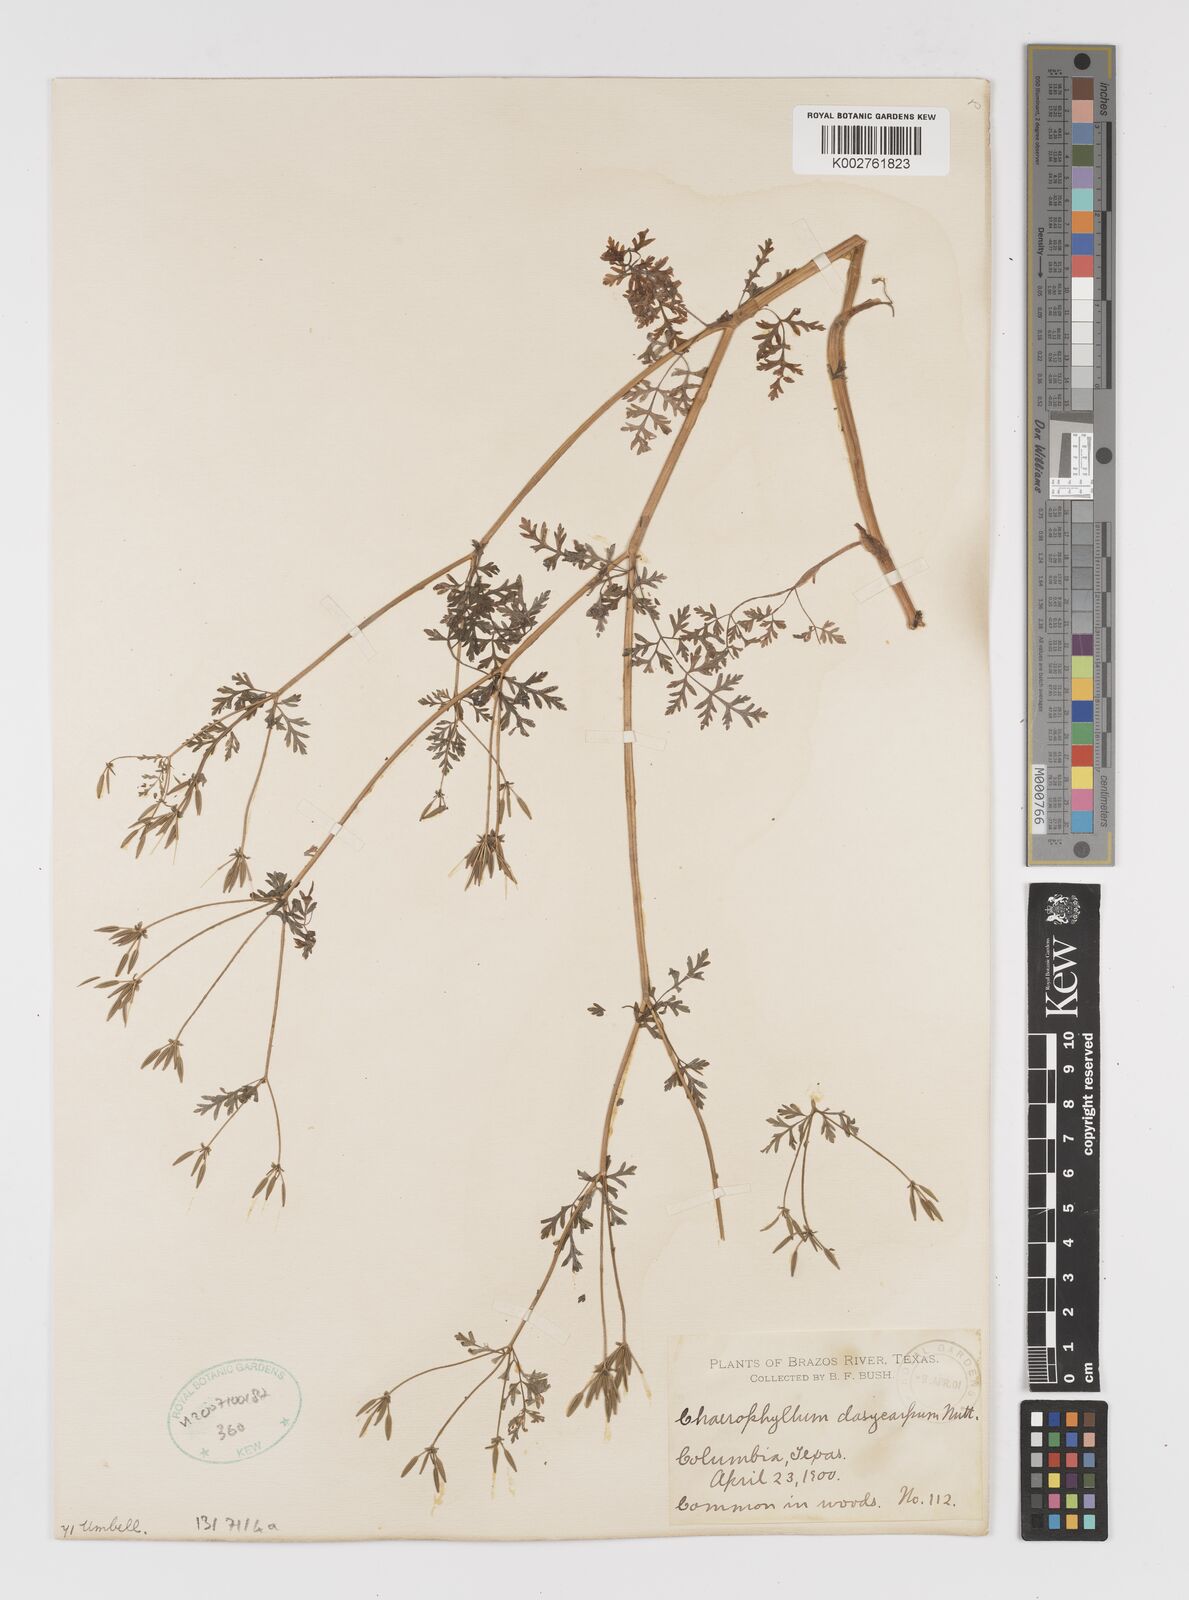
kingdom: Plantae
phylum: Tracheophyta
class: Magnoliopsida
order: Apiales
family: Apiaceae
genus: Chaerophyllum
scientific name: Chaerophyllum dasycarpum
